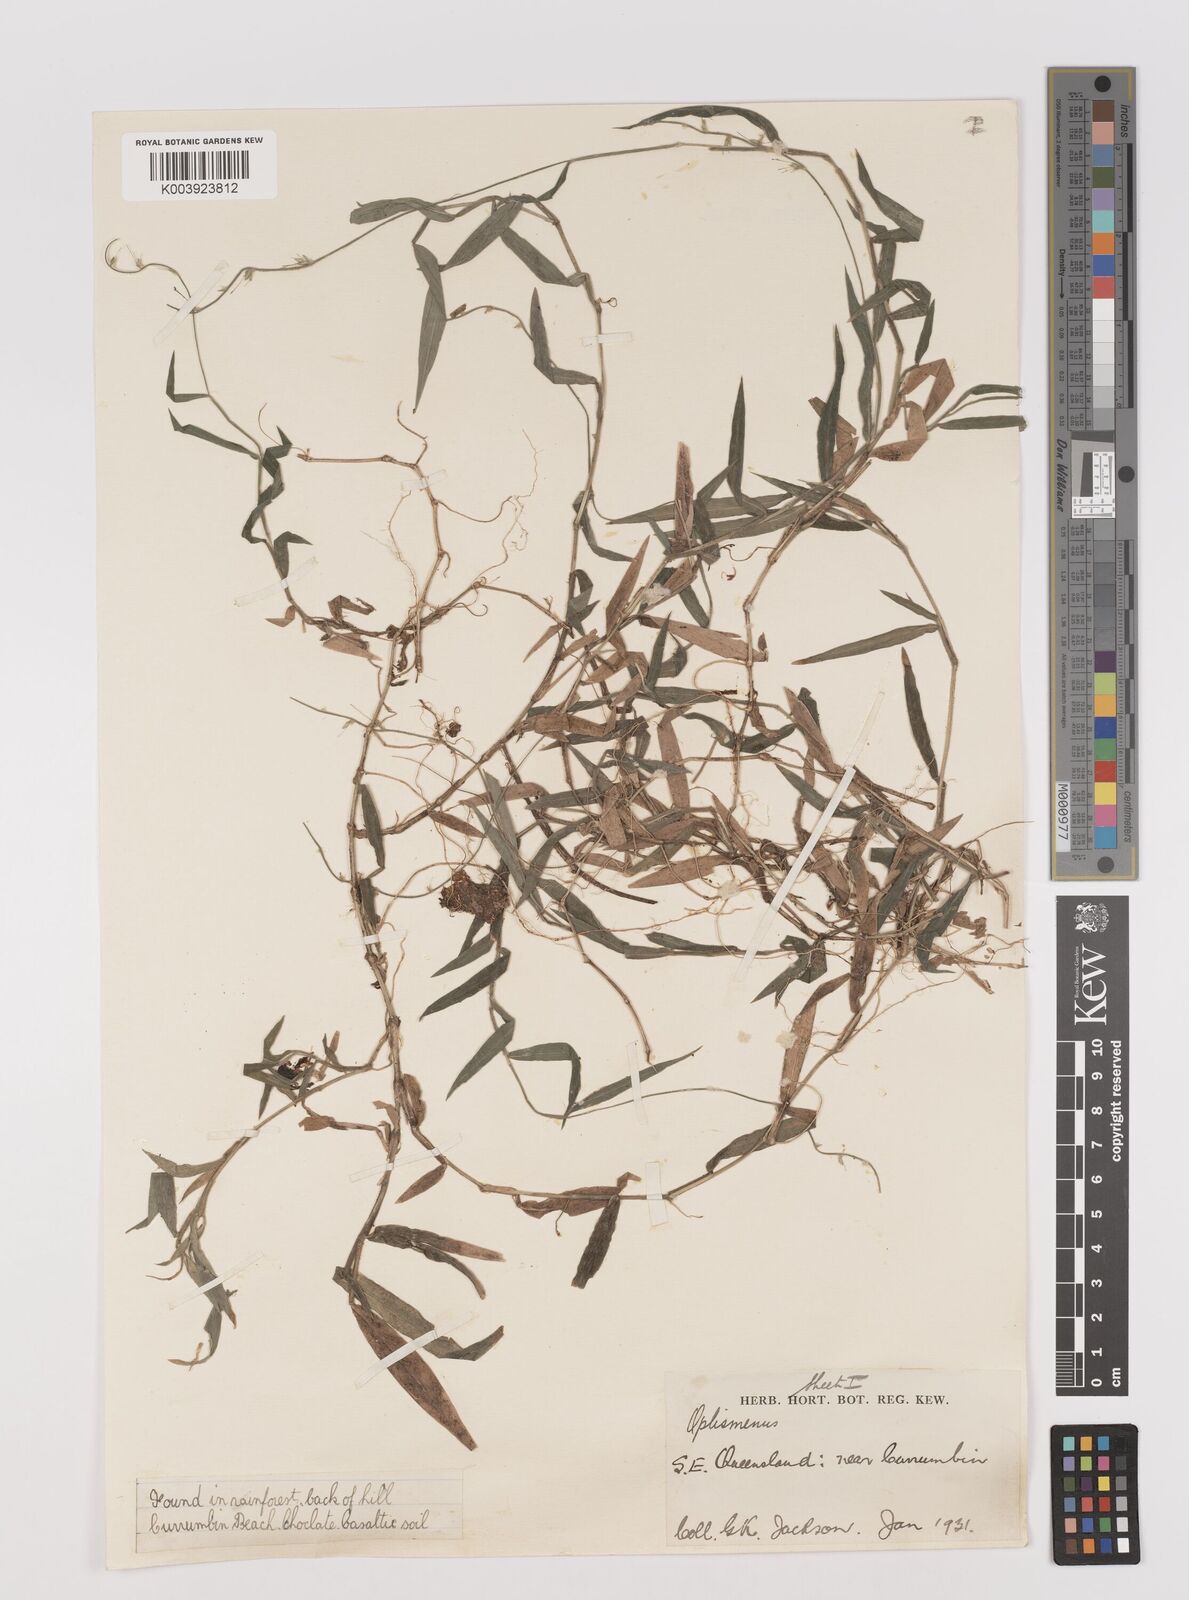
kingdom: Plantae
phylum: Tracheophyta
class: Liliopsida
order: Poales
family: Poaceae
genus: Oplismenus
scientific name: Oplismenus hirtellus
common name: Basketgrass
